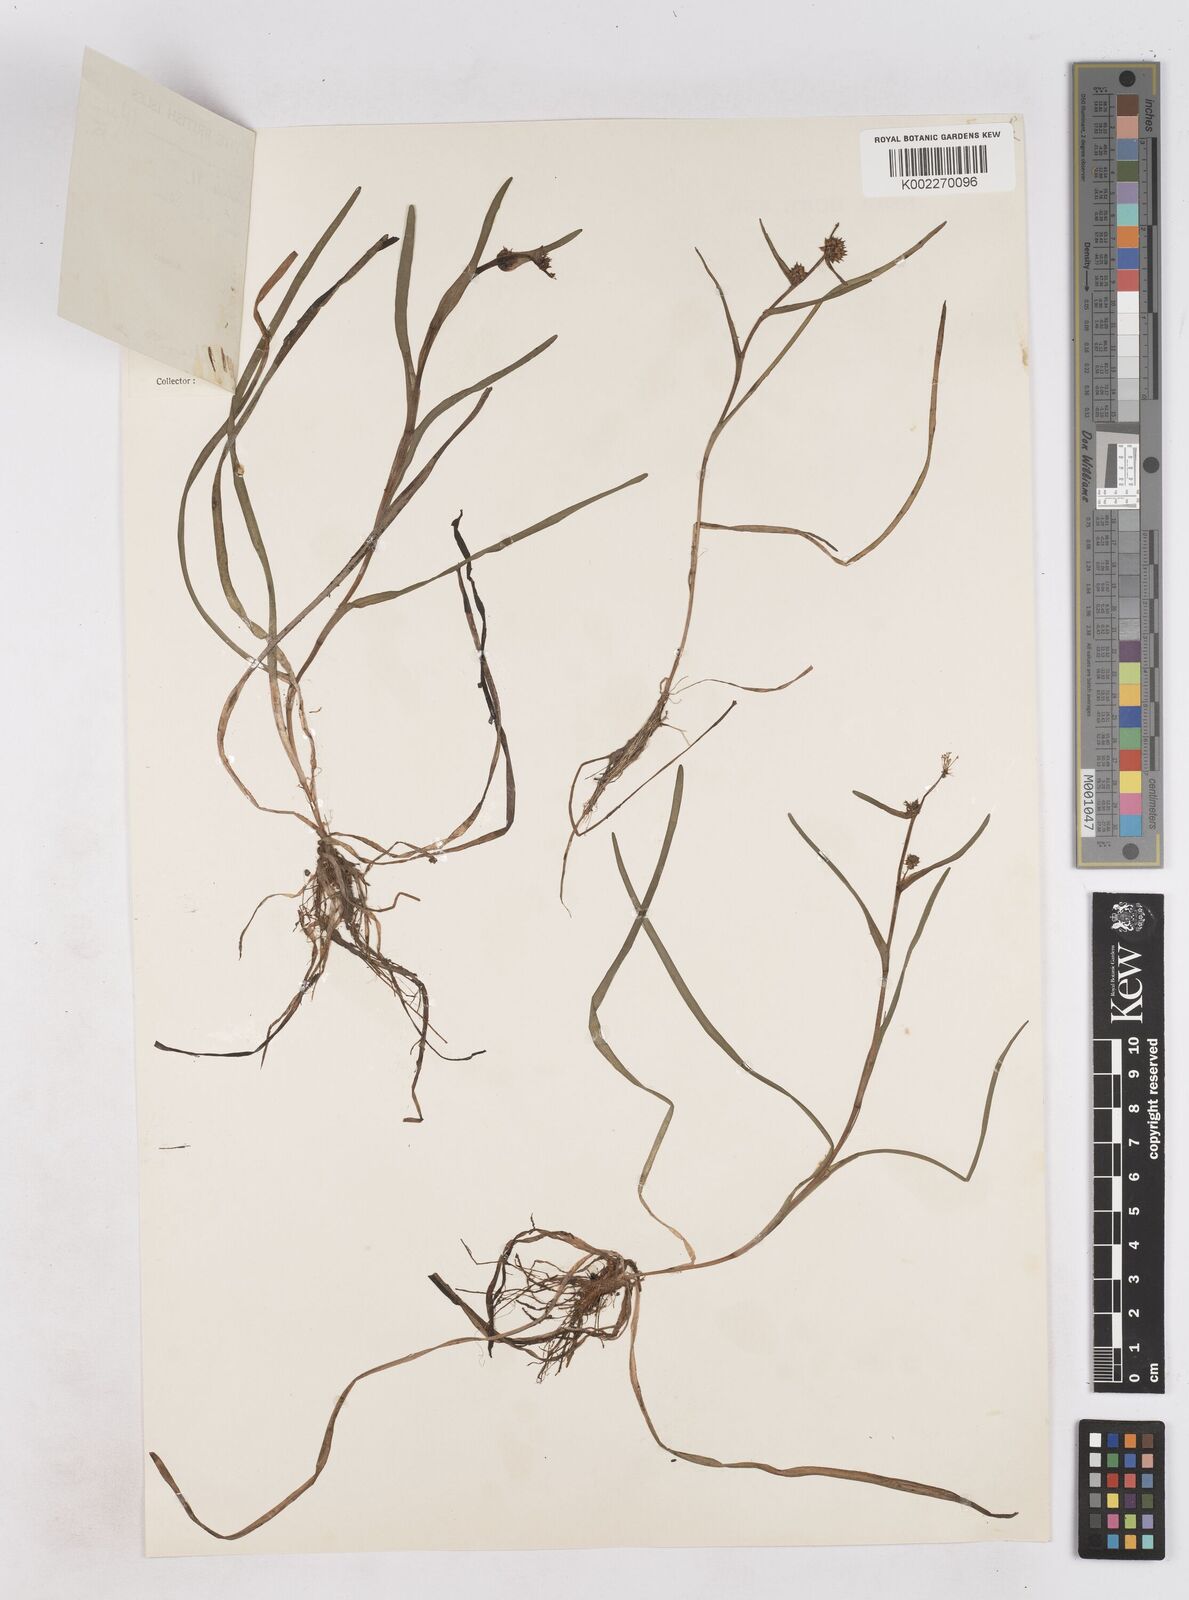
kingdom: Plantae
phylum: Tracheophyta
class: Liliopsida
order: Poales
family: Typhaceae
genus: Sparganium
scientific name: Sparganium natans
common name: Least bur-reed
